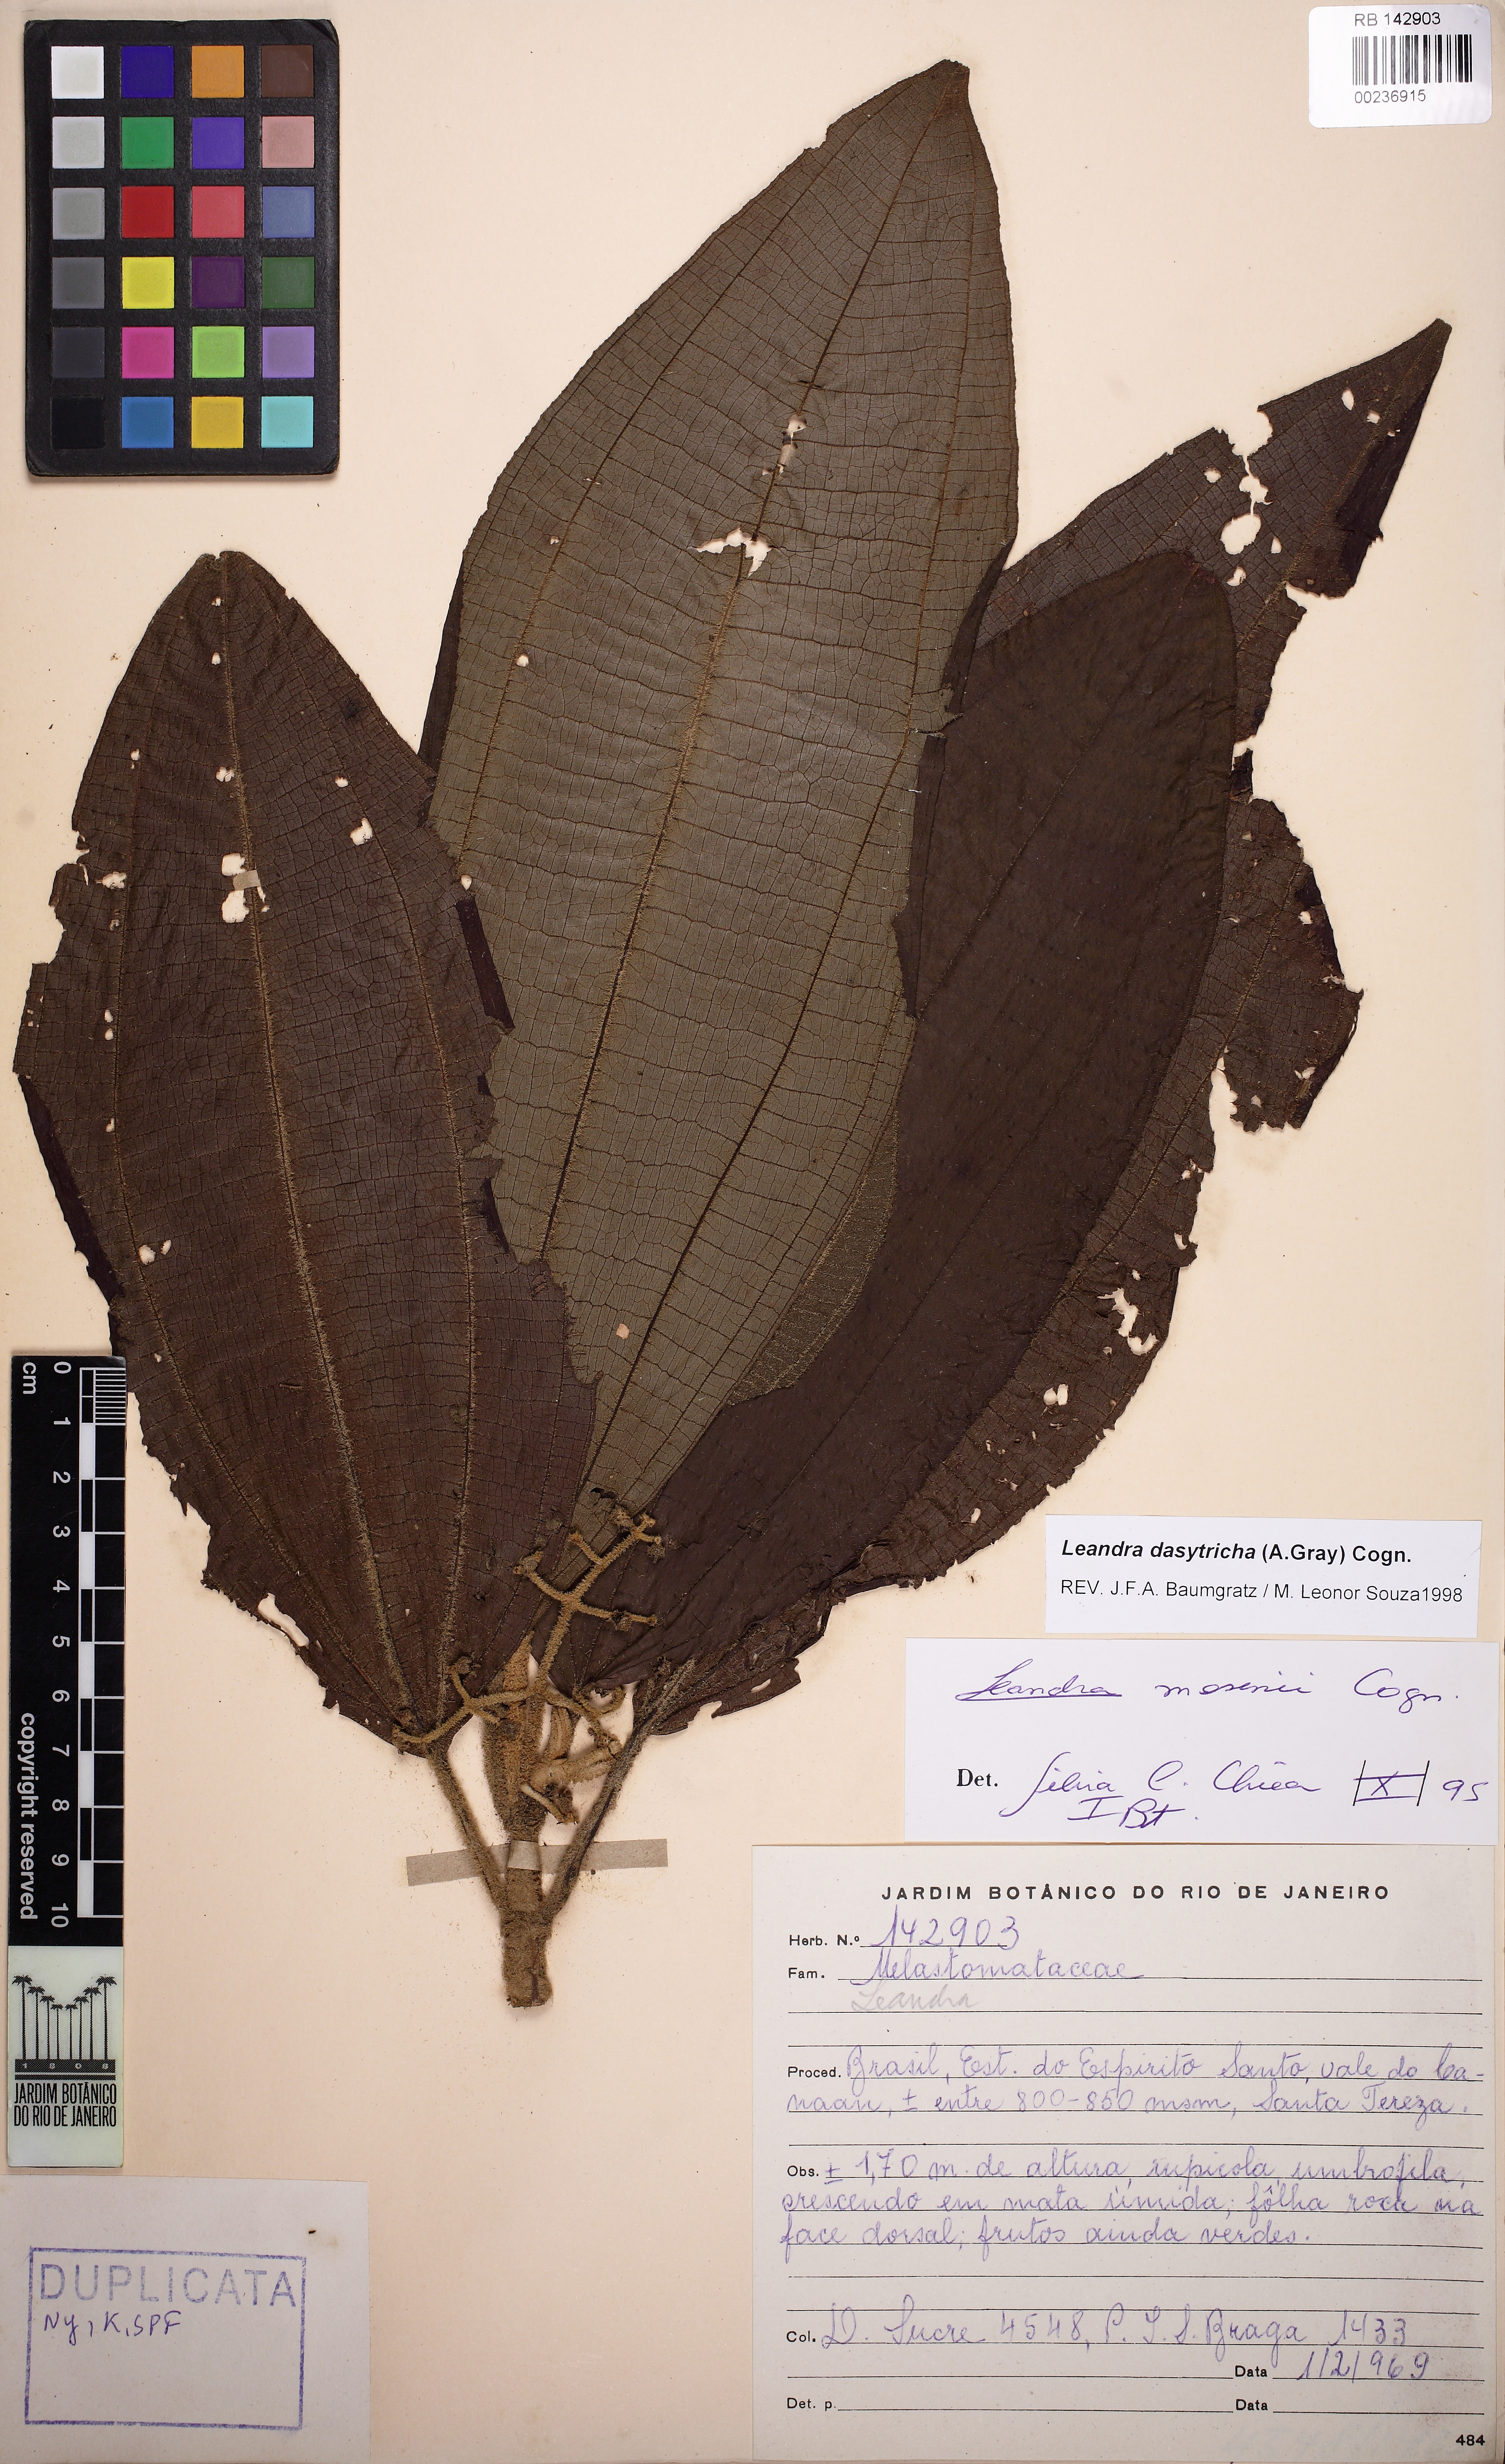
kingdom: Plantae
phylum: Tracheophyta
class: Magnoliopsida
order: Myrtales
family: Melastomataceae
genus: Miconia
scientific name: Miconia dasytricha
